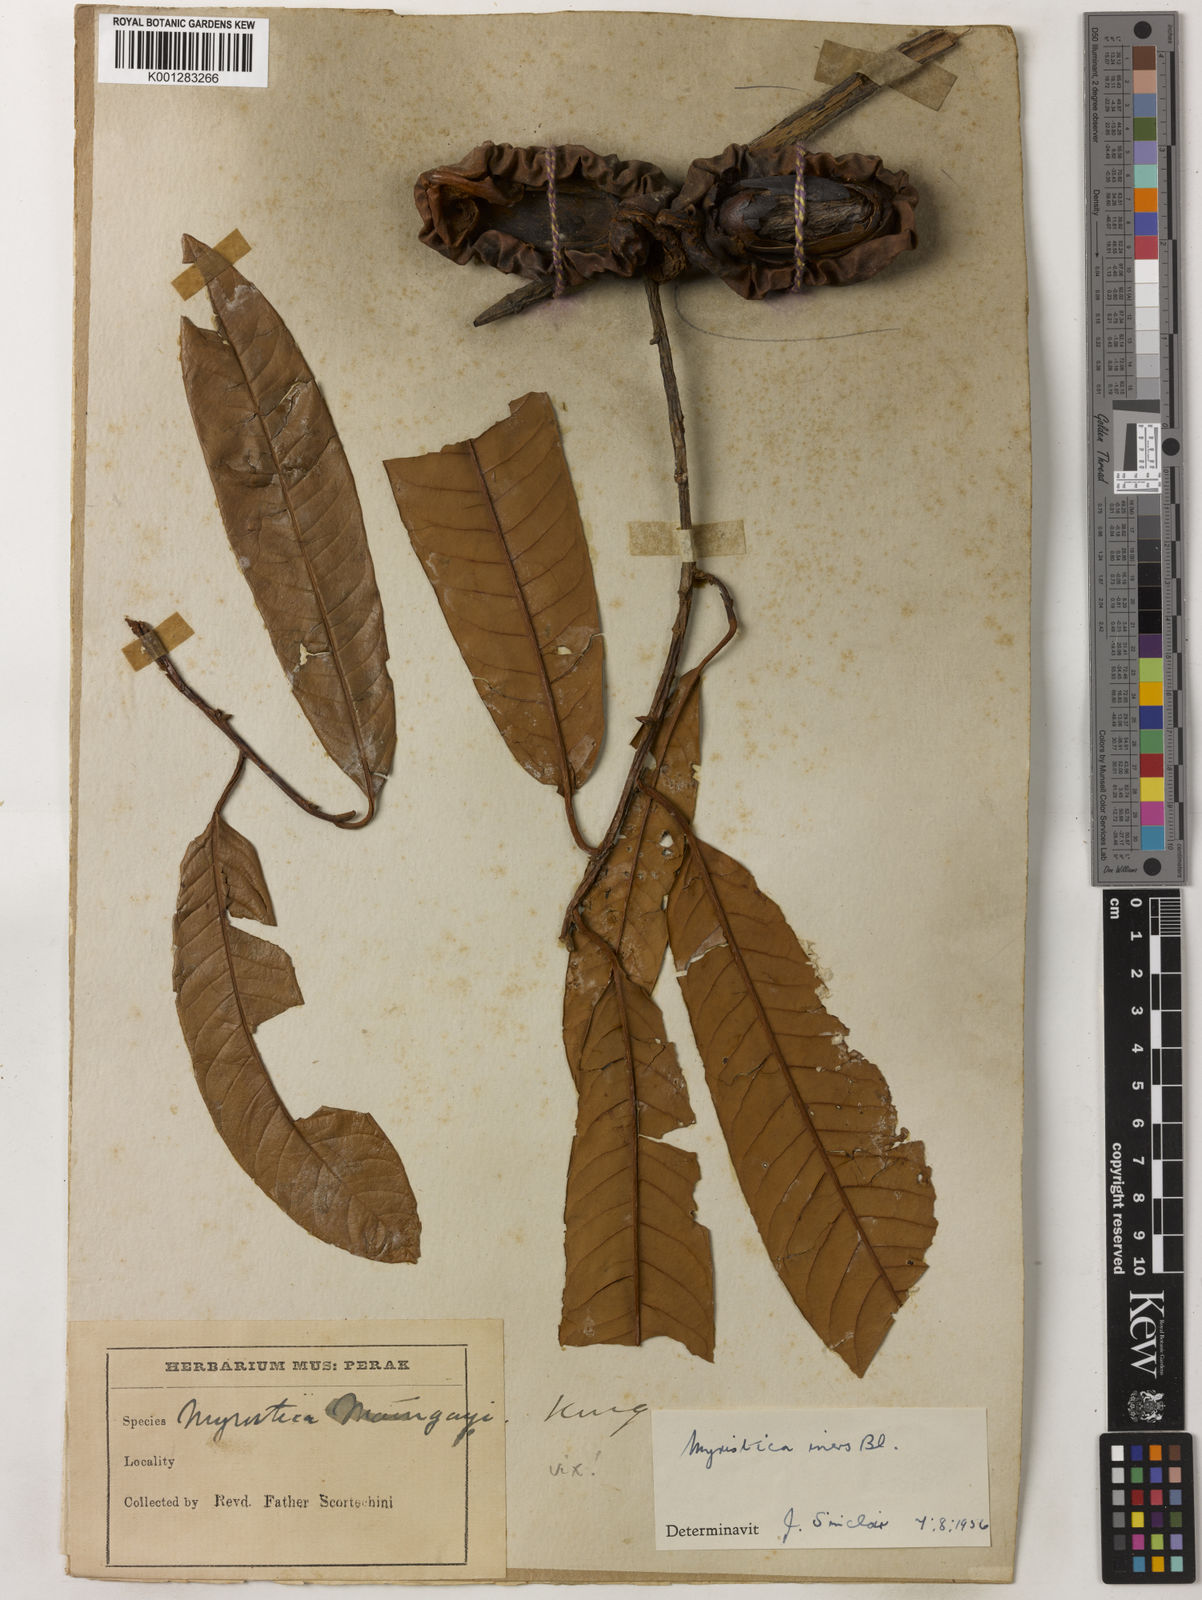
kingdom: Plantae
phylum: Tracheophyta
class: Magnoliopsida
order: Magnoliales
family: Myristicaceae
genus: Myristica
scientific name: Myristica iners
